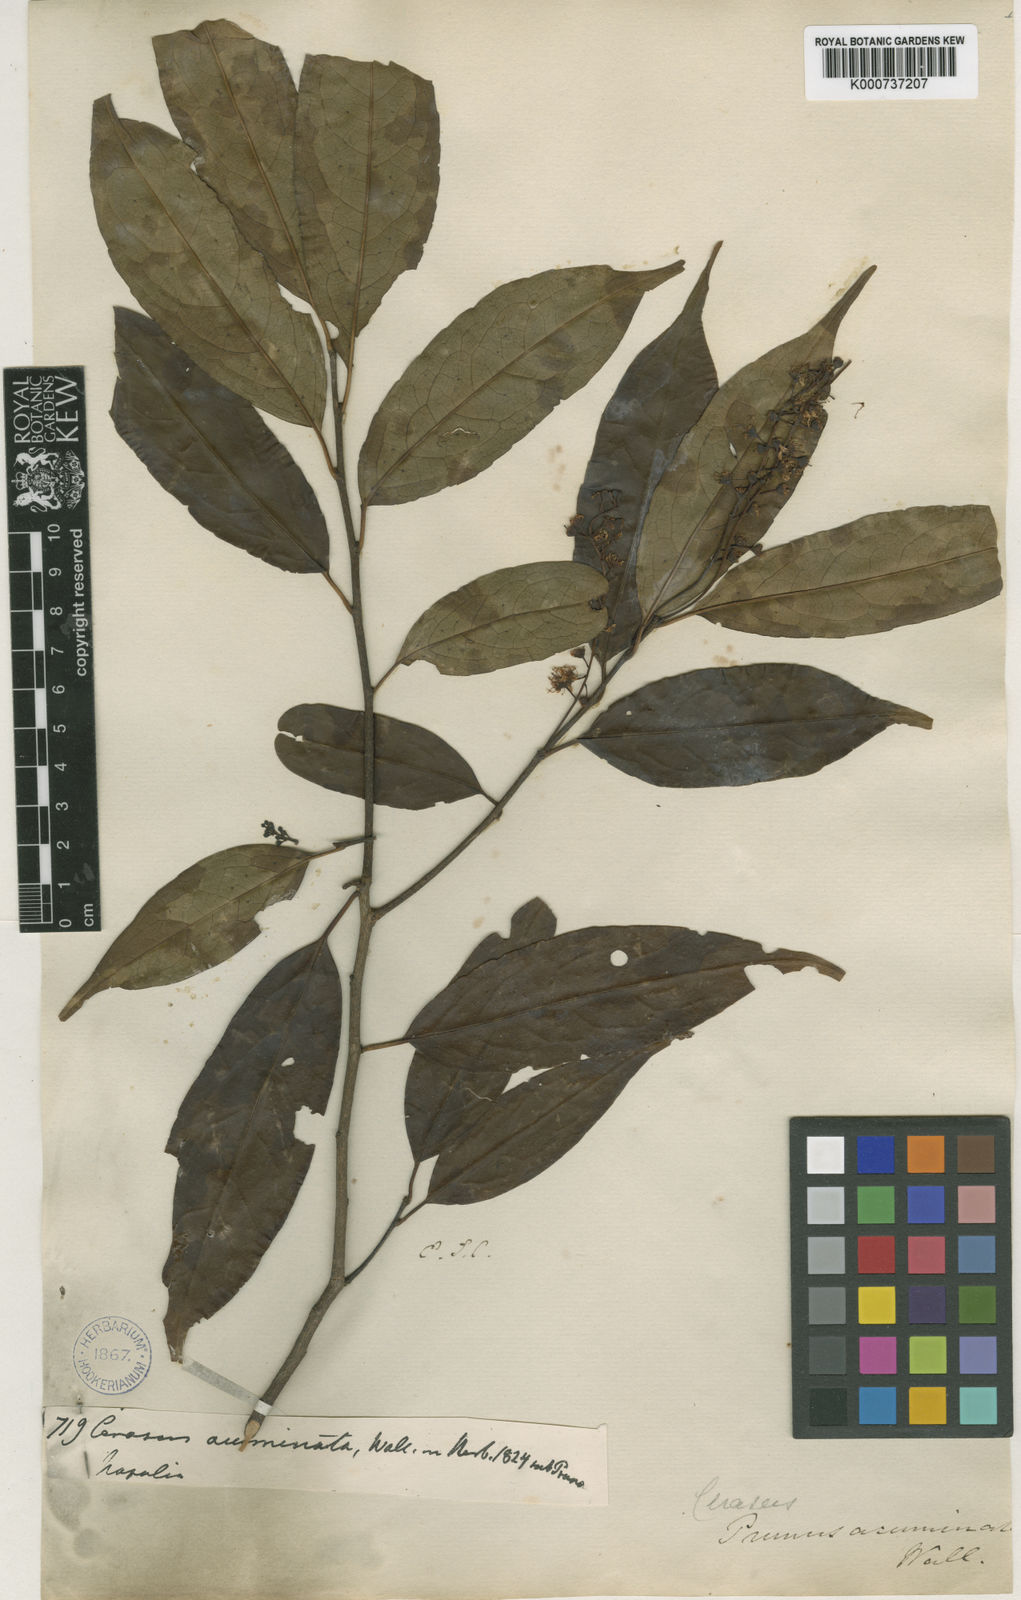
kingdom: Plantae
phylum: Tracheophyta
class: Magnoliopsida
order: Rosales
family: Rosaceae
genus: Prunus
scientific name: Prunus undulata
